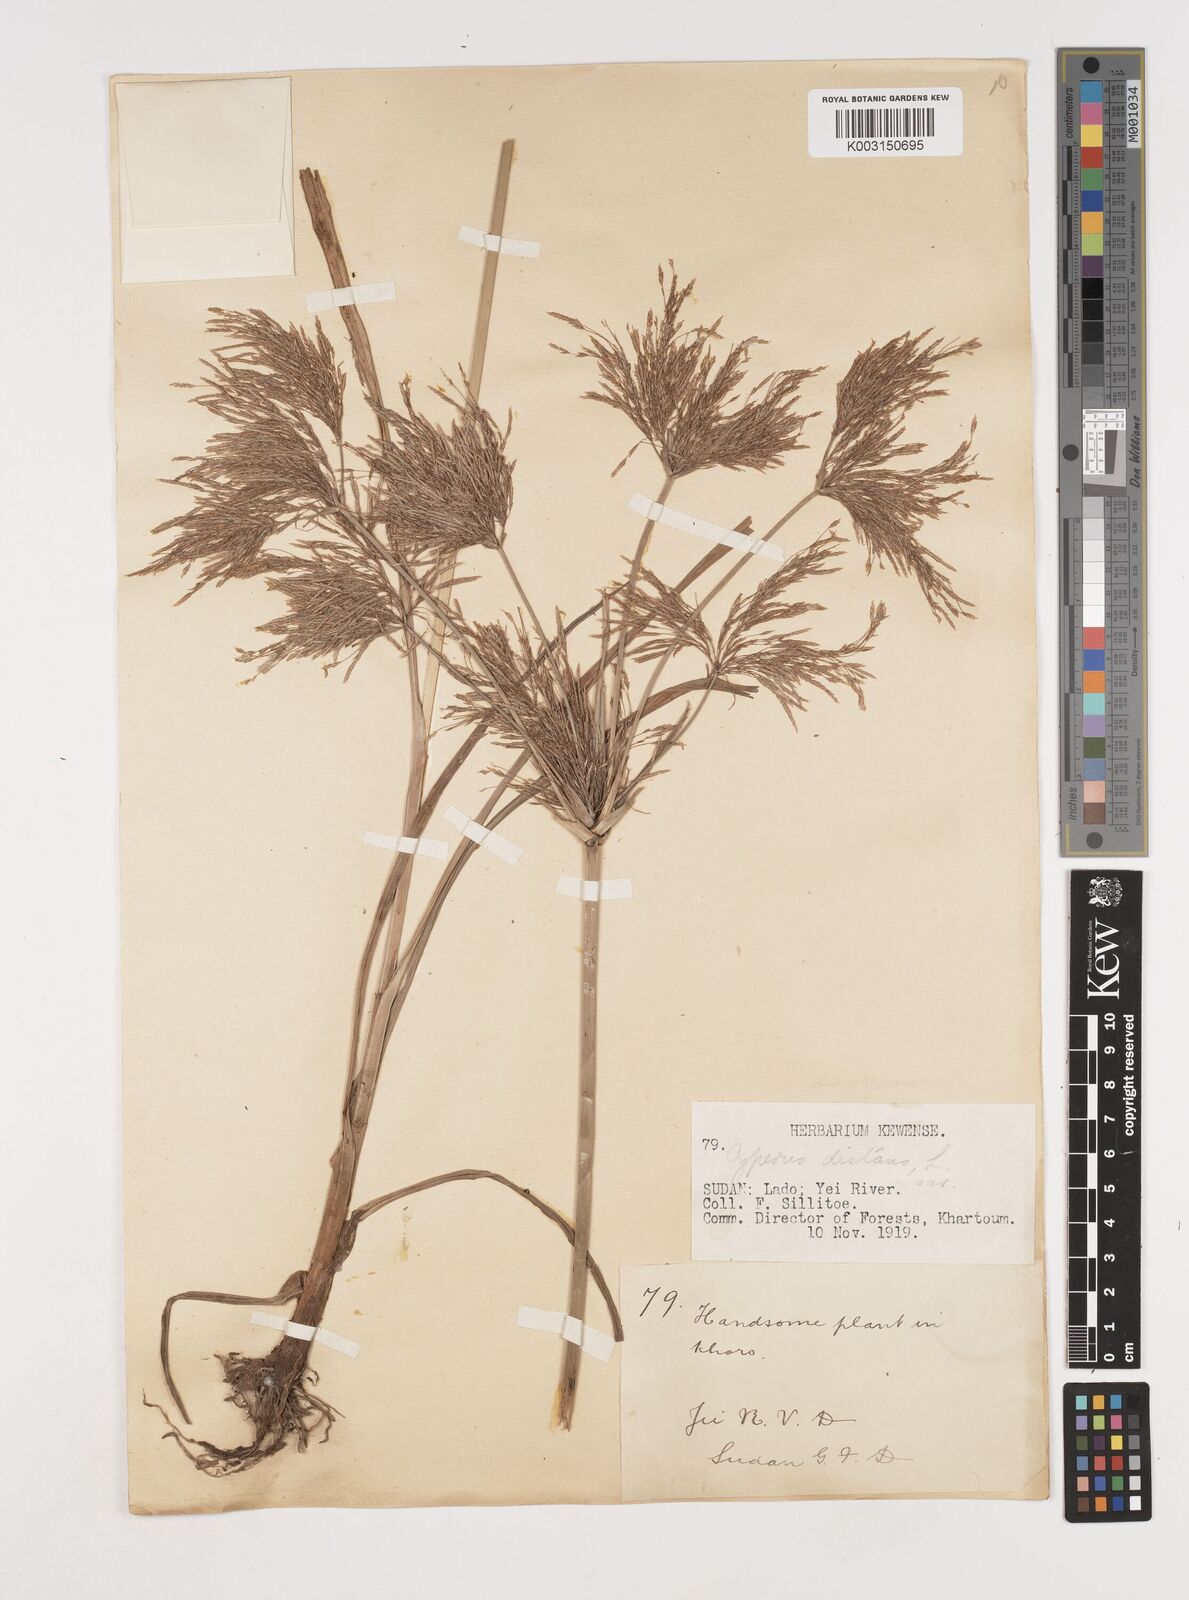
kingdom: Plantae
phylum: Tracheophyta
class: Liliopsida
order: Poales
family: Cyperaceae
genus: Cyperus
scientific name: Cyperus distans
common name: Slender cyperus
